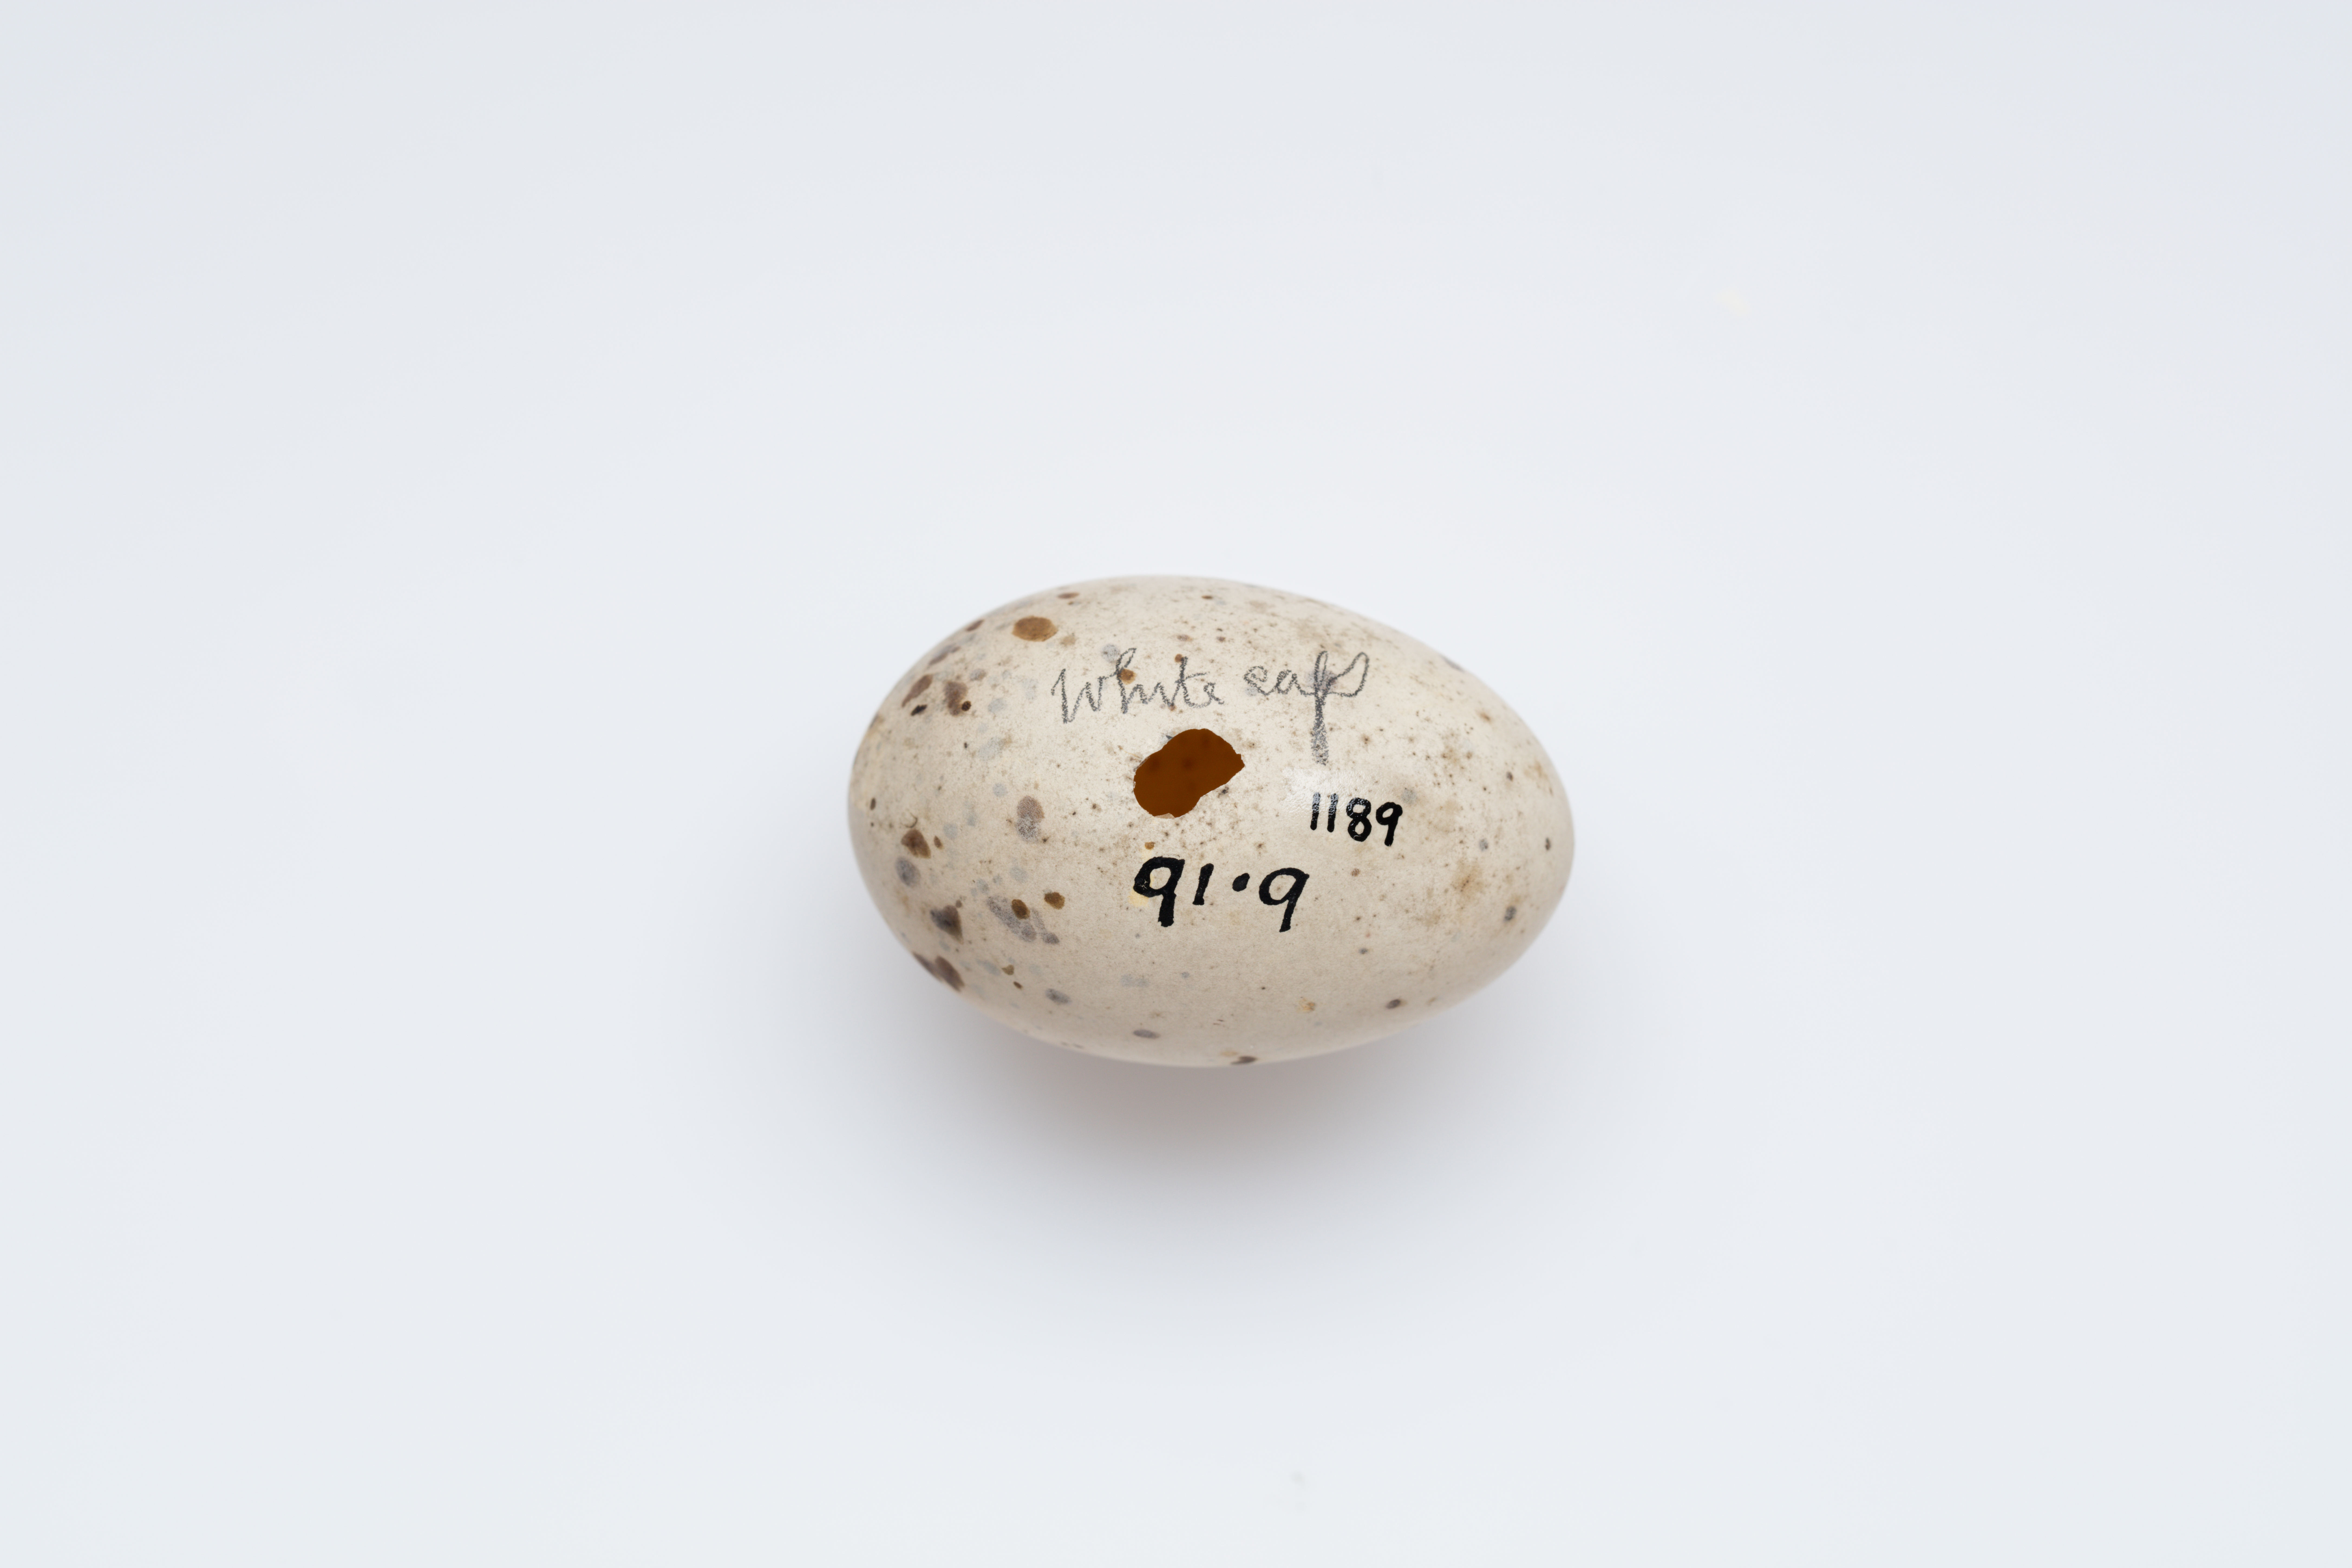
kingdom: Animalia
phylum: Chordata
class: Aves
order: Charadriiformes
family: Laridae
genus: Anous
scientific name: Anous minutus
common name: Black noddy
